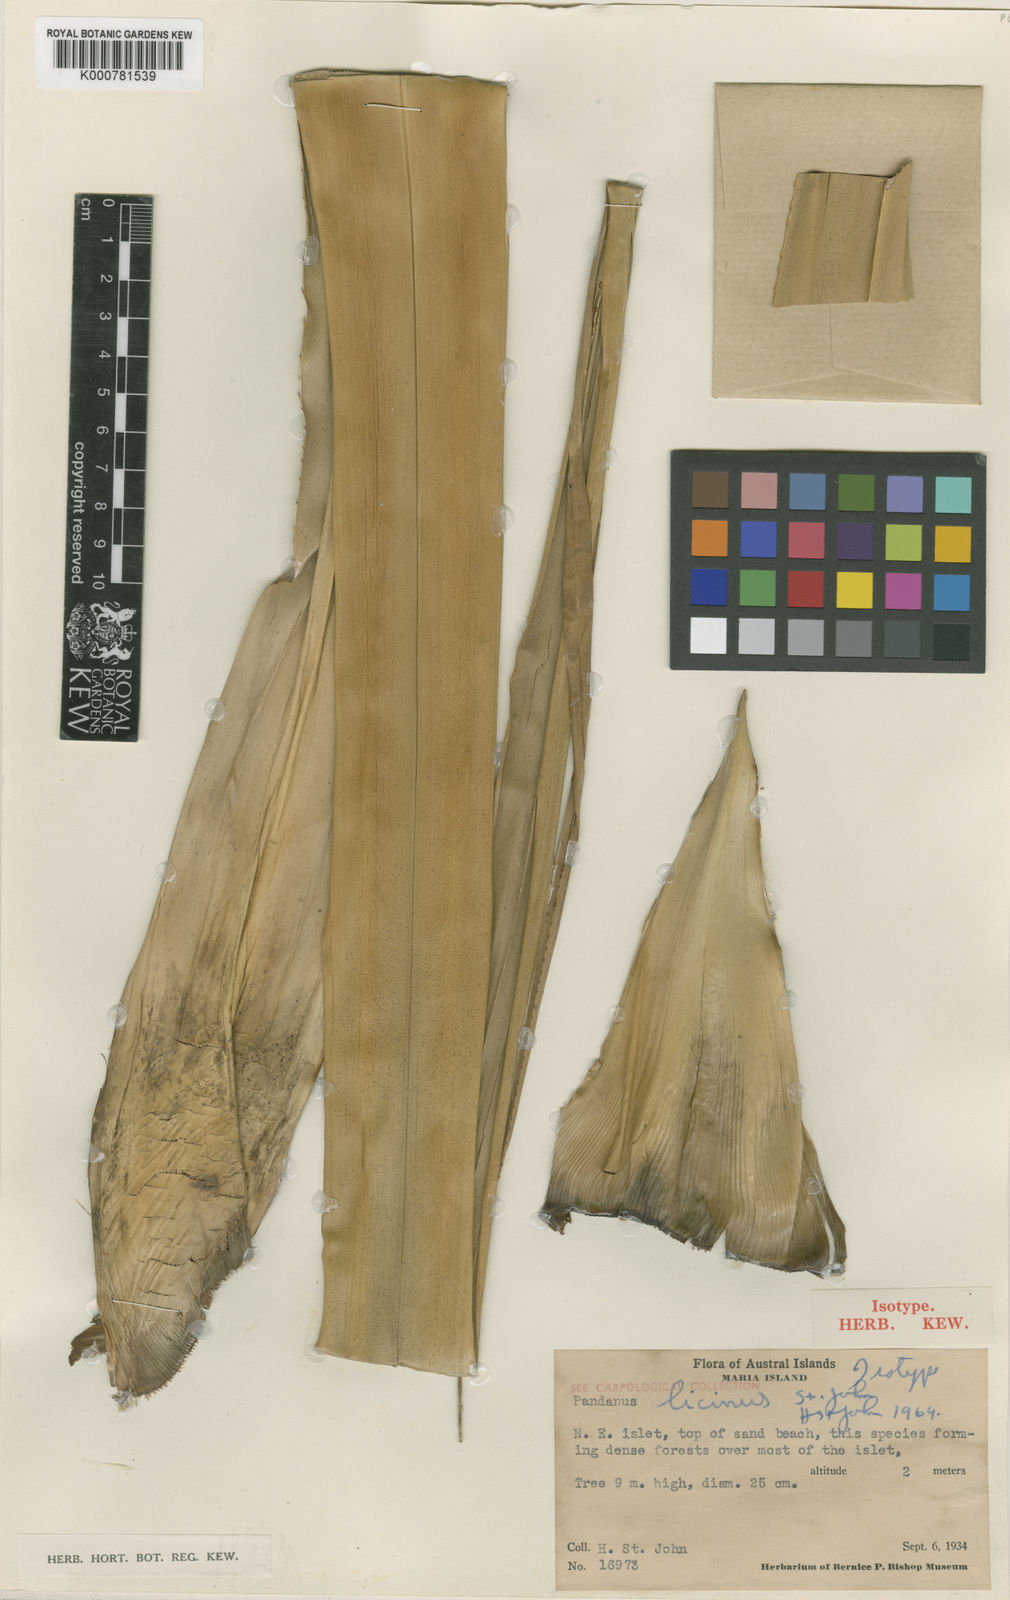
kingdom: Plantae
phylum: Tracheophyta
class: Liliopsida
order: Pandanales
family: Pandanaceae
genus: Pandanus
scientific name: Pandanus tectorius
